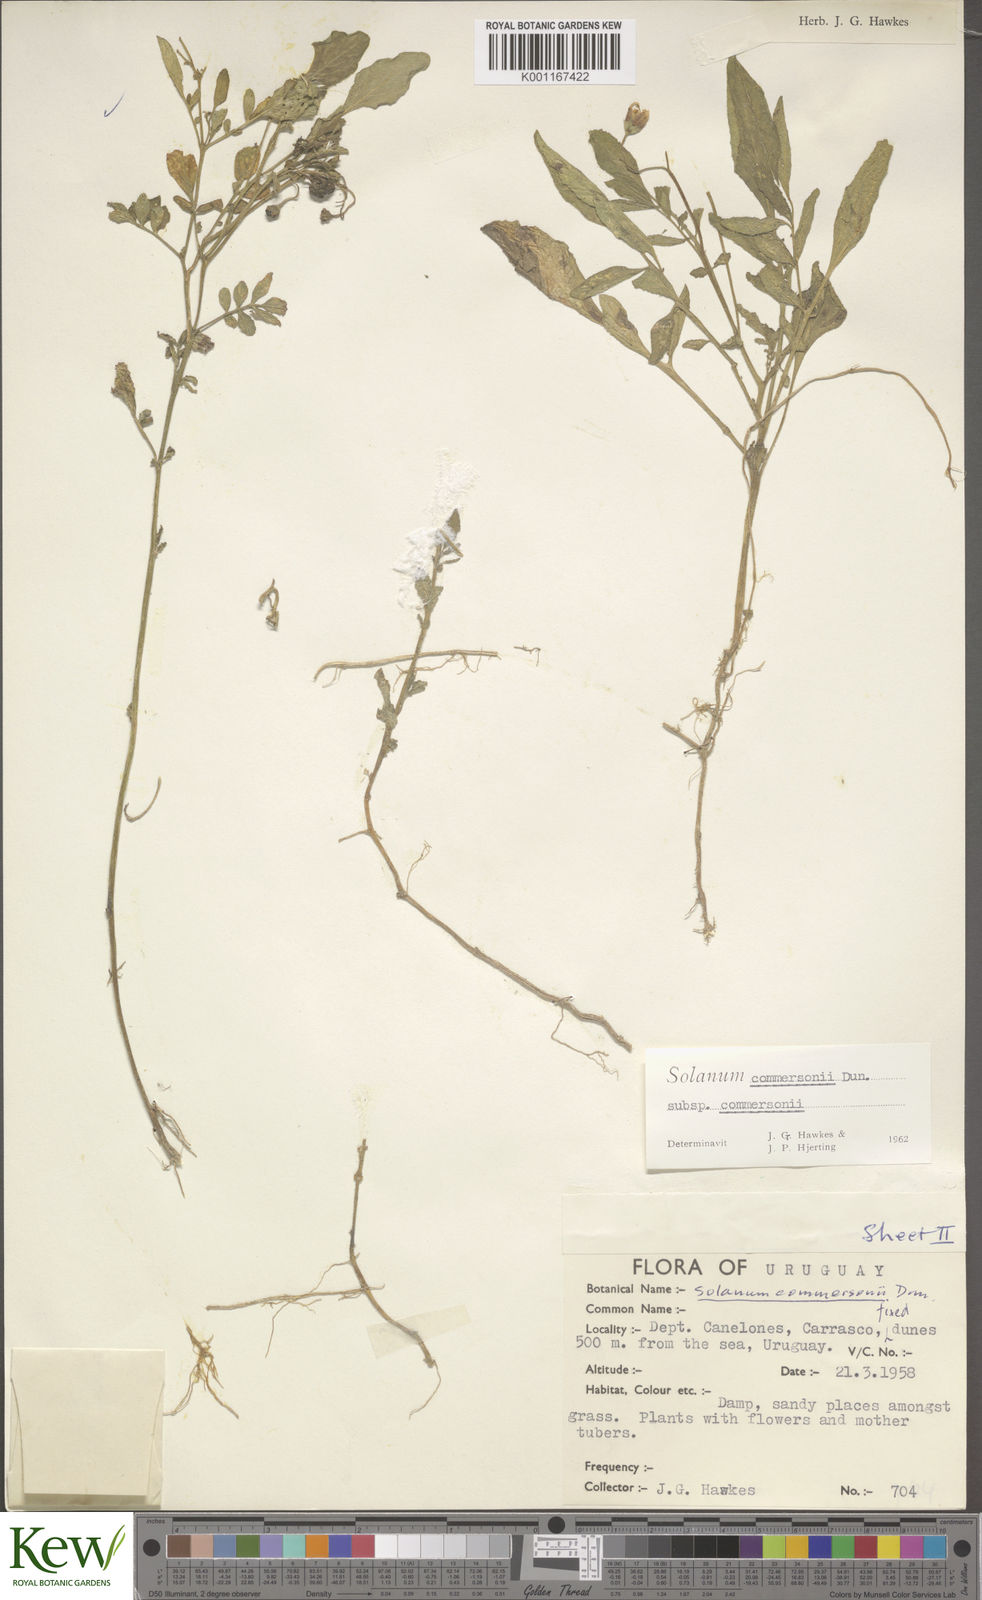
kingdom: Plantae
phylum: Tracheophyta
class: Magnoliopsida
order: Solanales
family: Solanaceae
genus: Solanum
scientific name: Solanum commersonii
